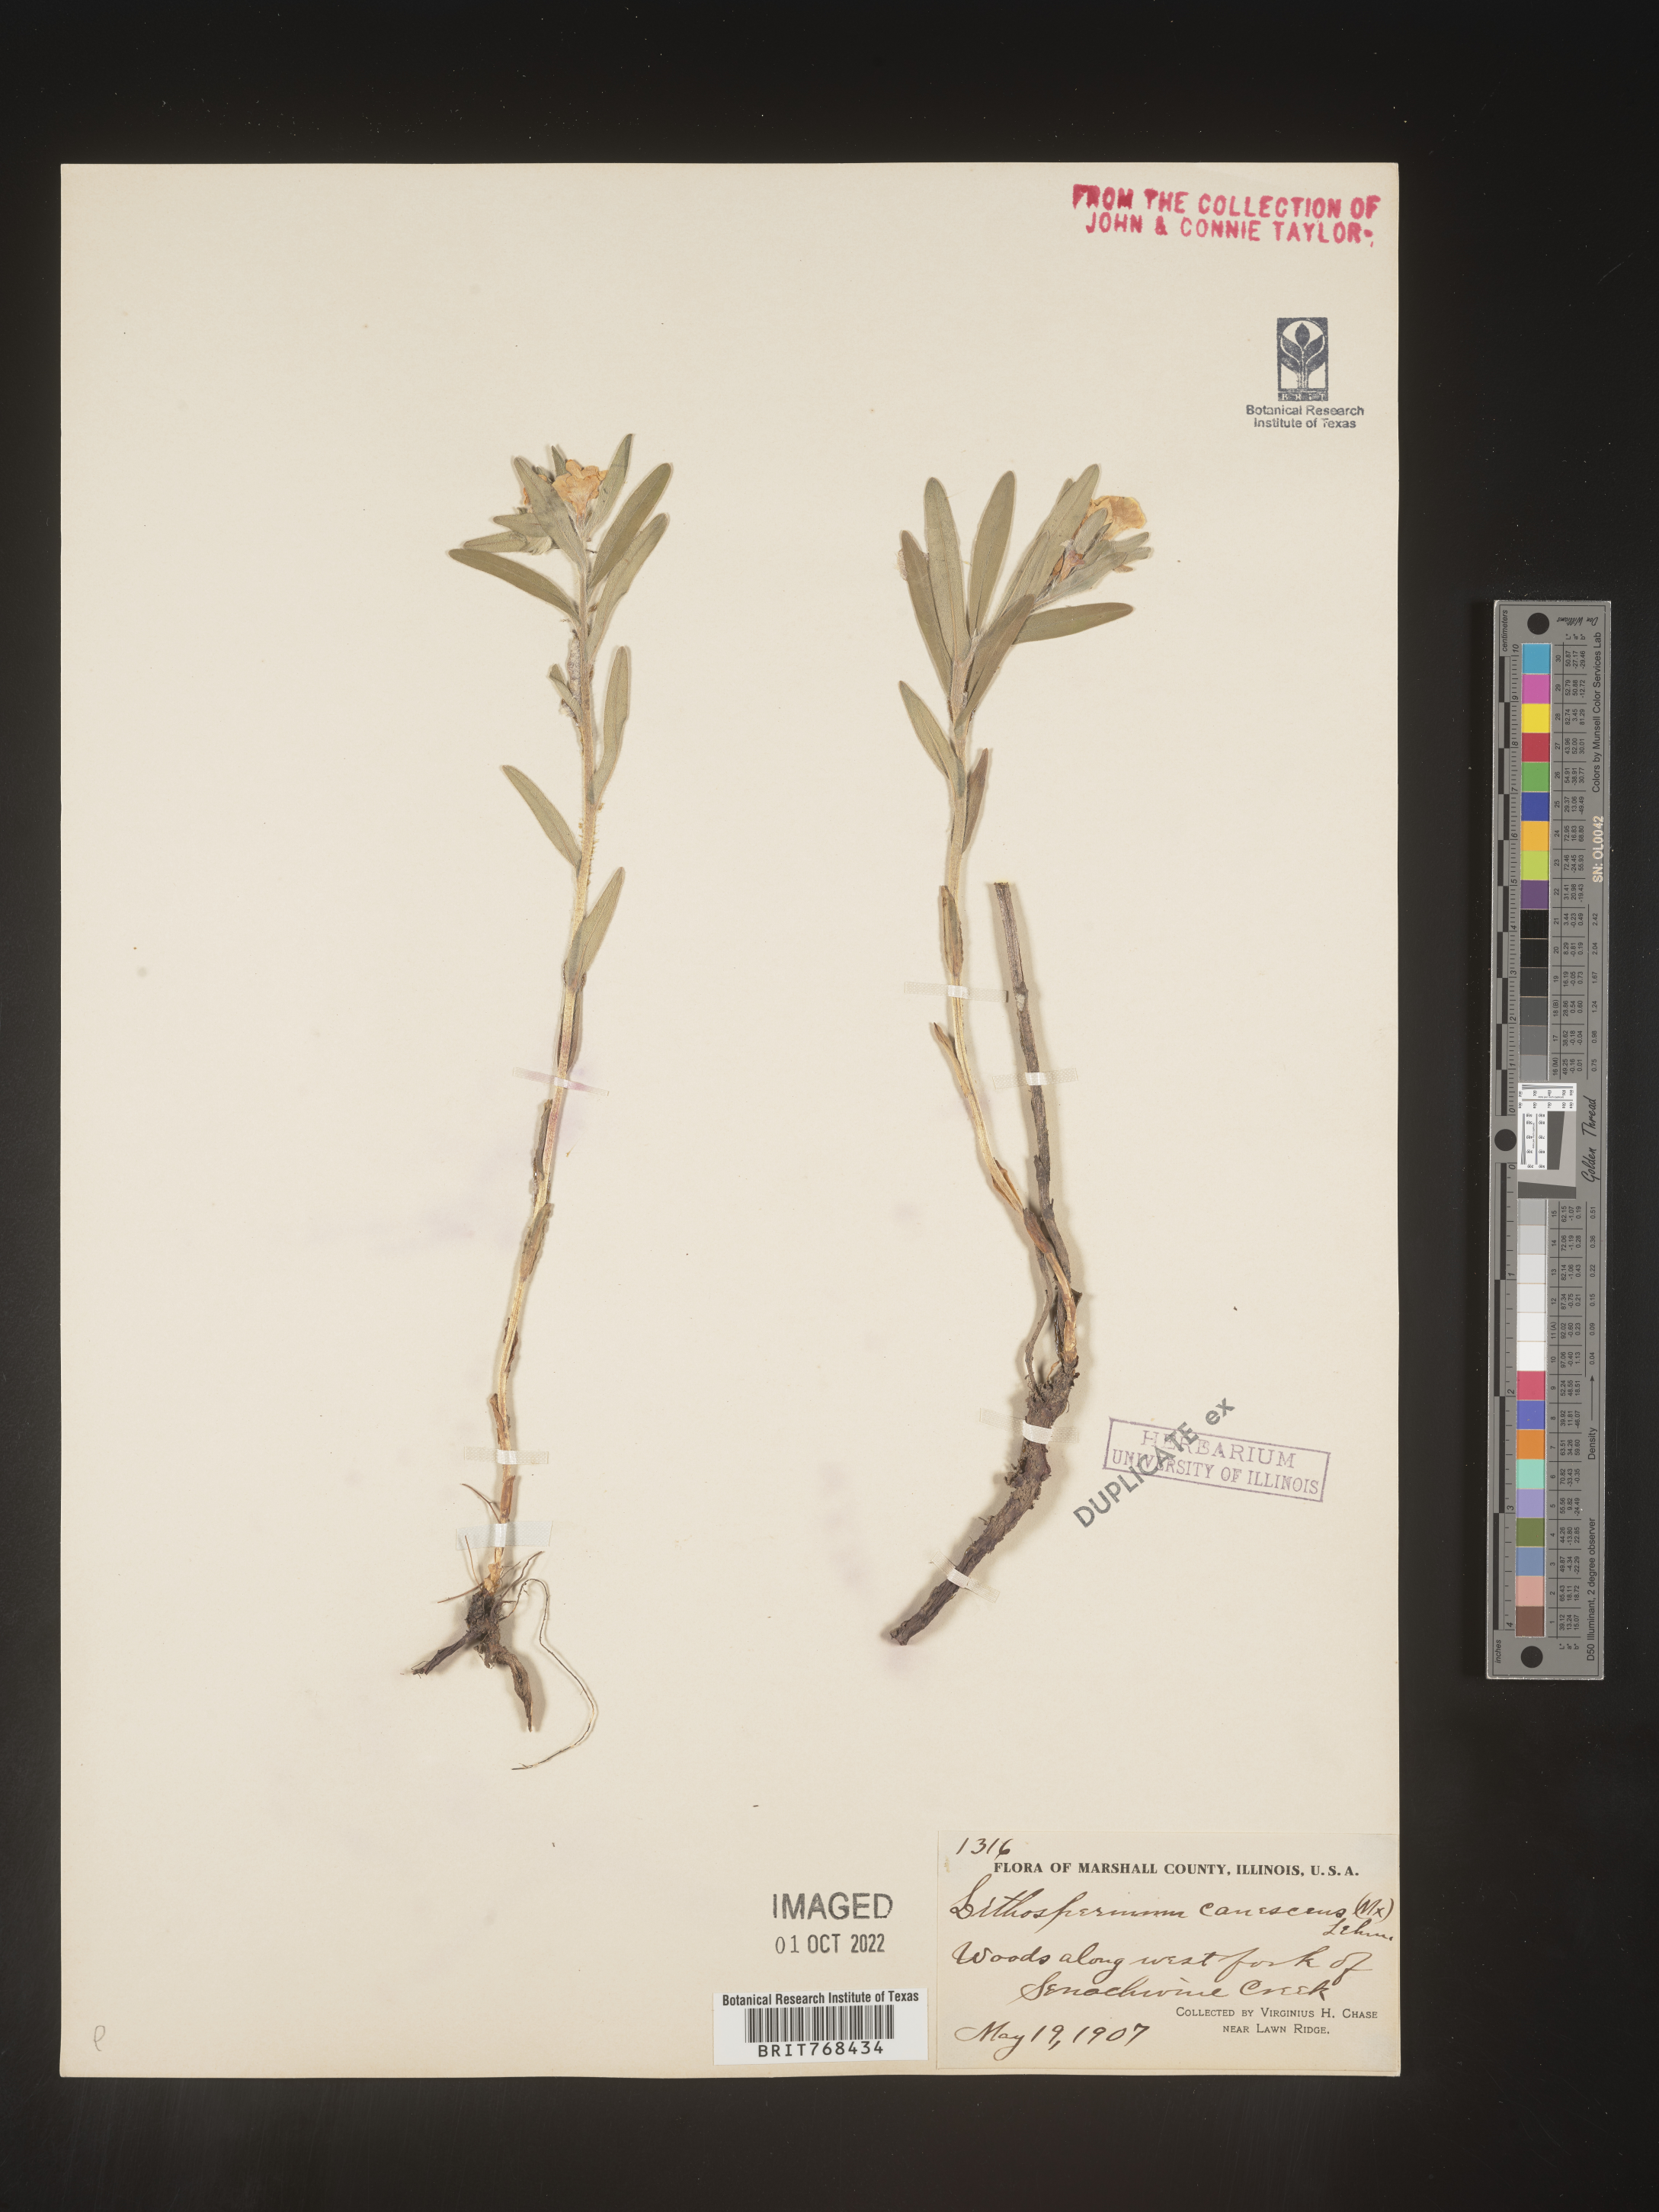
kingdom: Plantae
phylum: Tracheophyta
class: Magnoliopsida
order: Boraginales
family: Boraginaceae
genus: Lithospermum
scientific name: Lithospermum canescens
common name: Hoary puccoon
